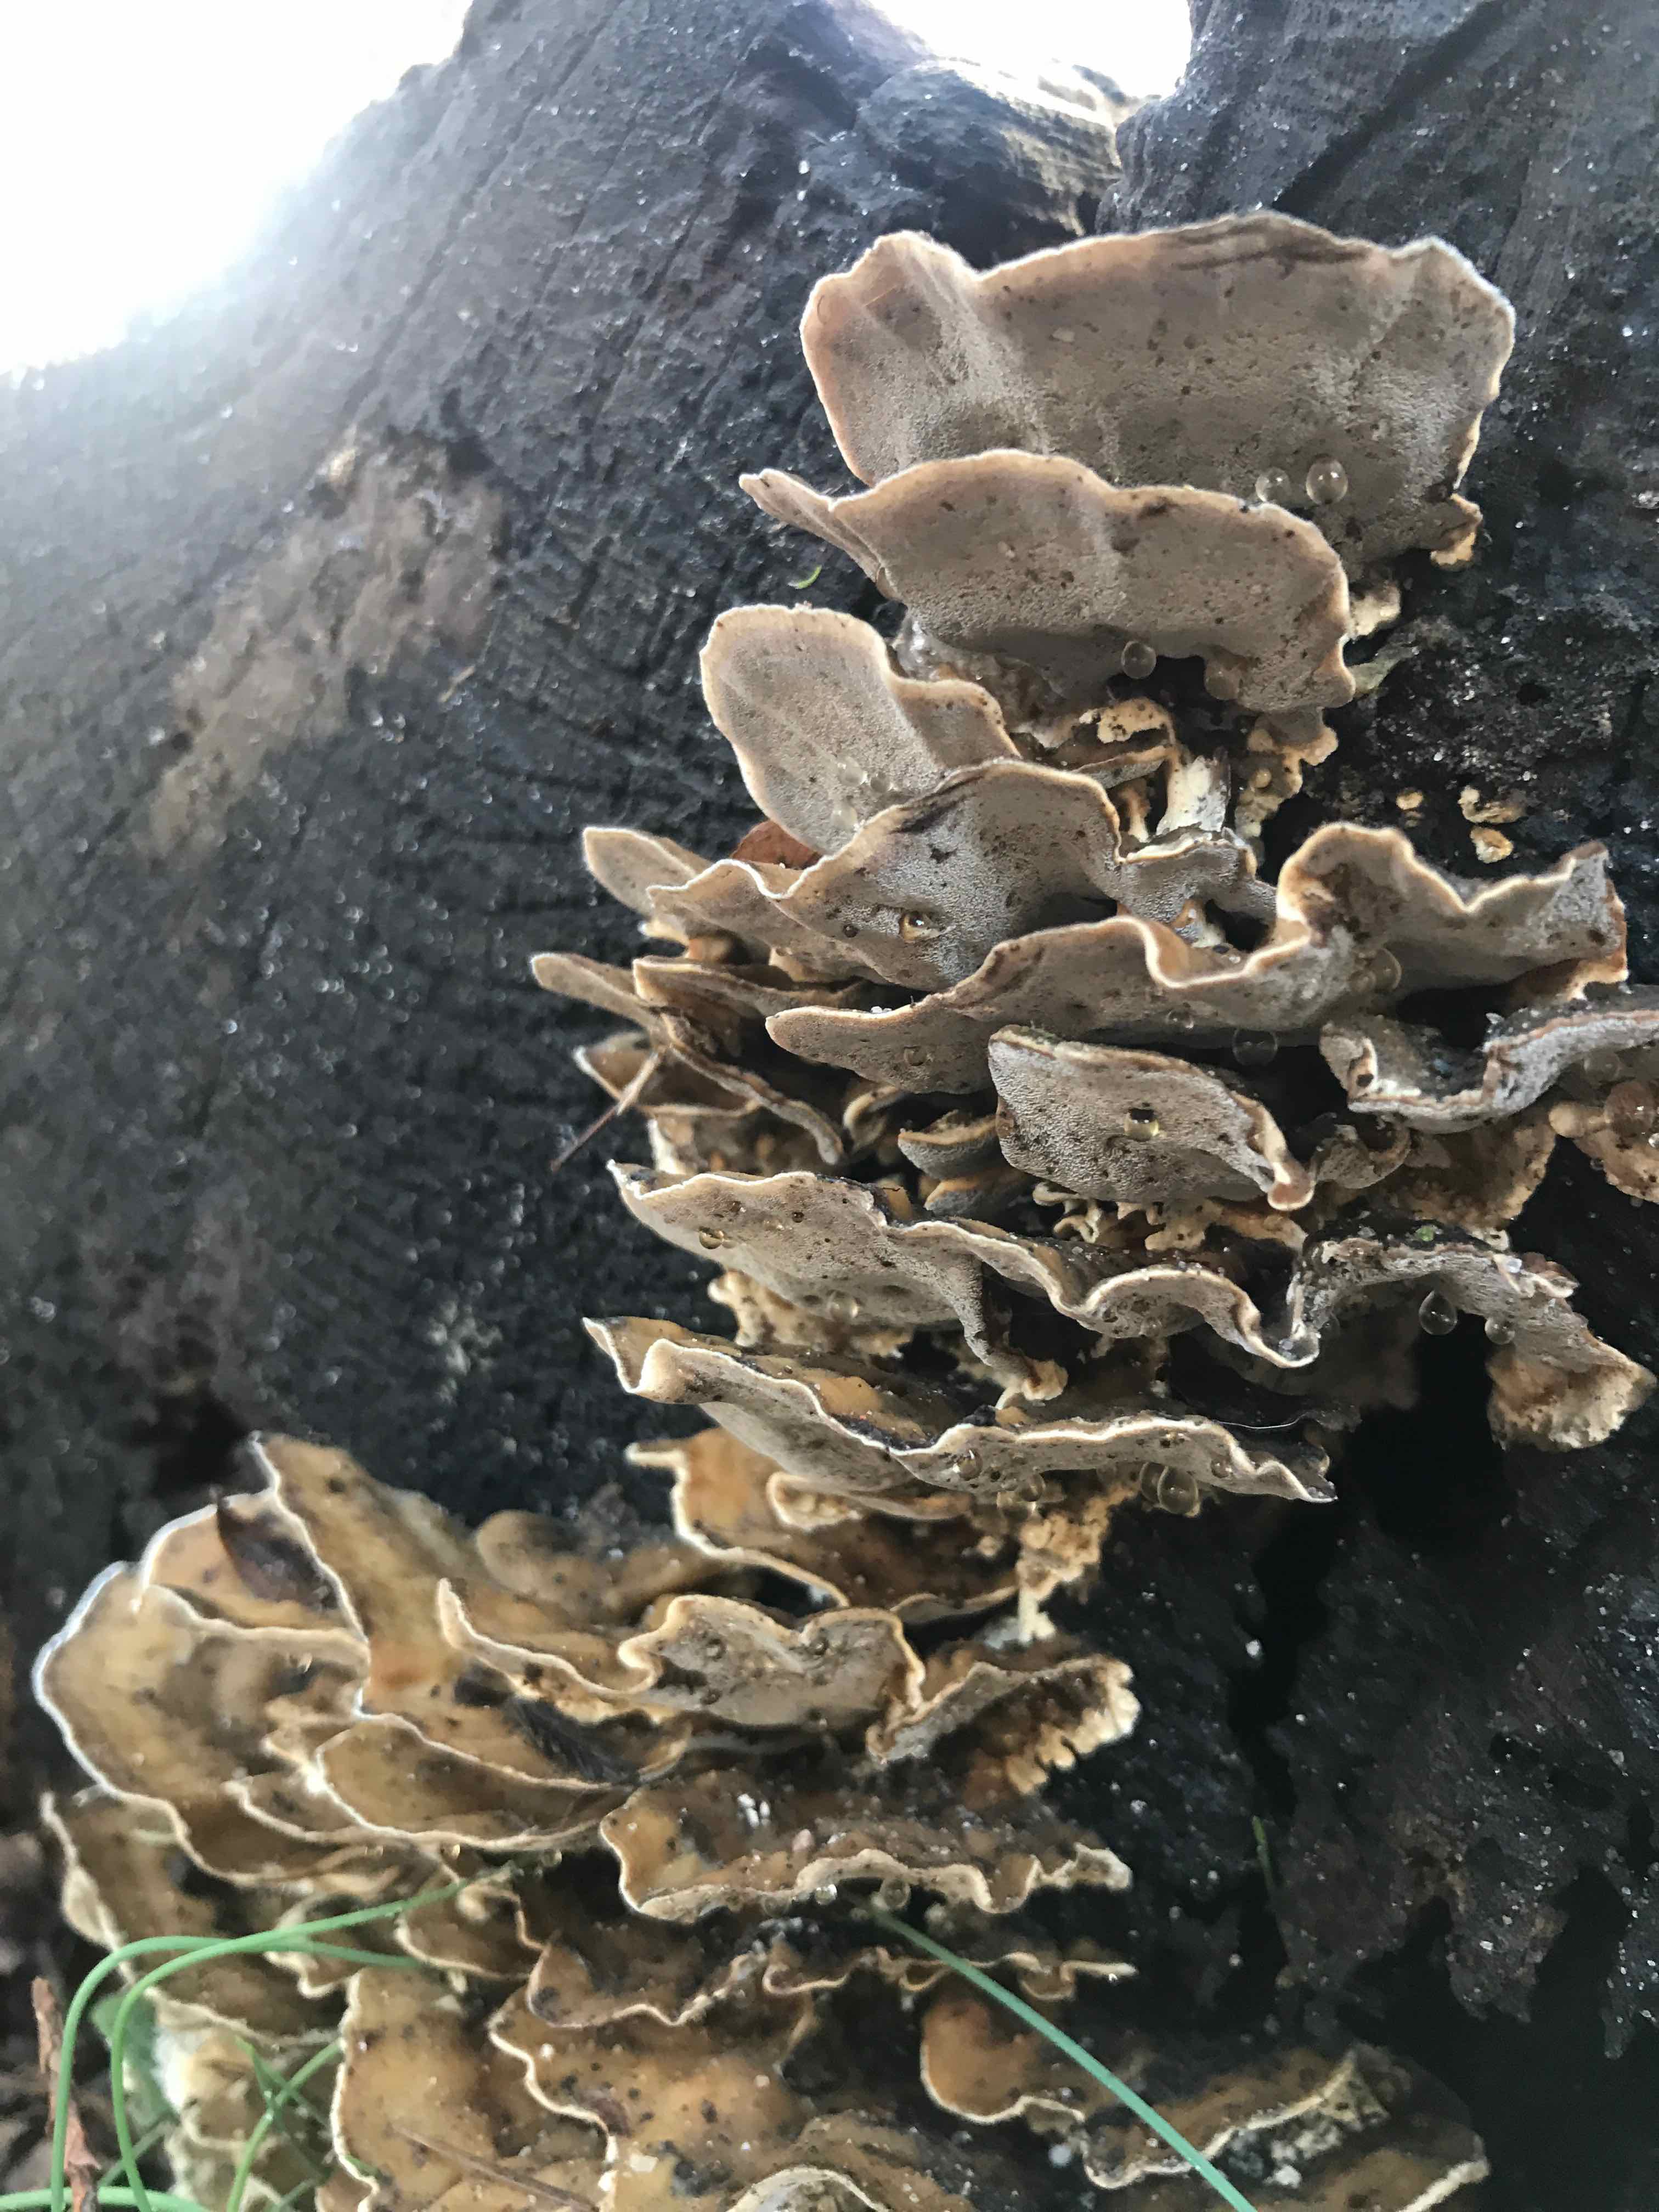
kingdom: Fungi
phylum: Basidiomycota
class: Agaricomycetes
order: Polyporales
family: Polyporaceae
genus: Trametes
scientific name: Trametes versicolor
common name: broget læderporesvamp
